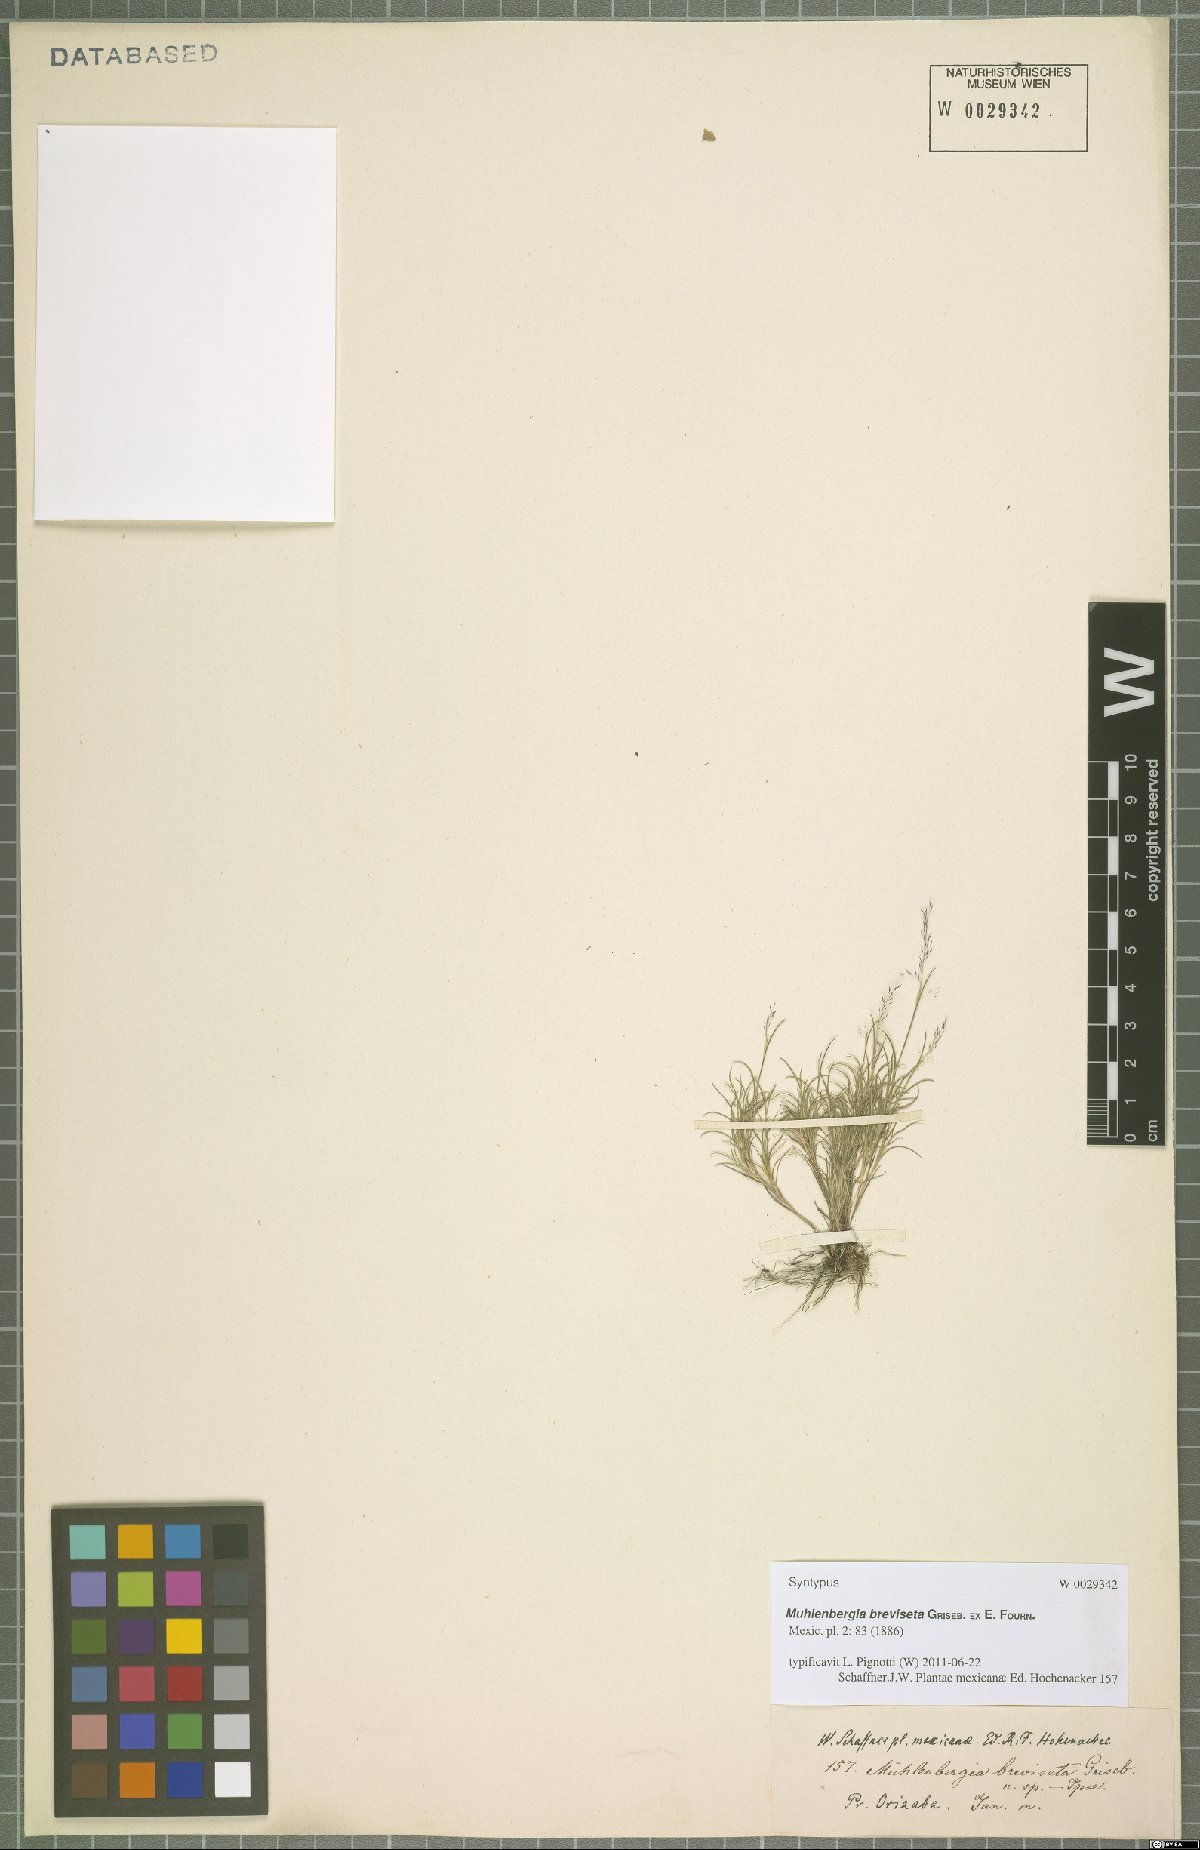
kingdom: Plantae
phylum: Tracheophyta
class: Liliopsida
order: Poales
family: Poaceae
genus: Muhlenbergia
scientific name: Muhlenbergia breviseta
